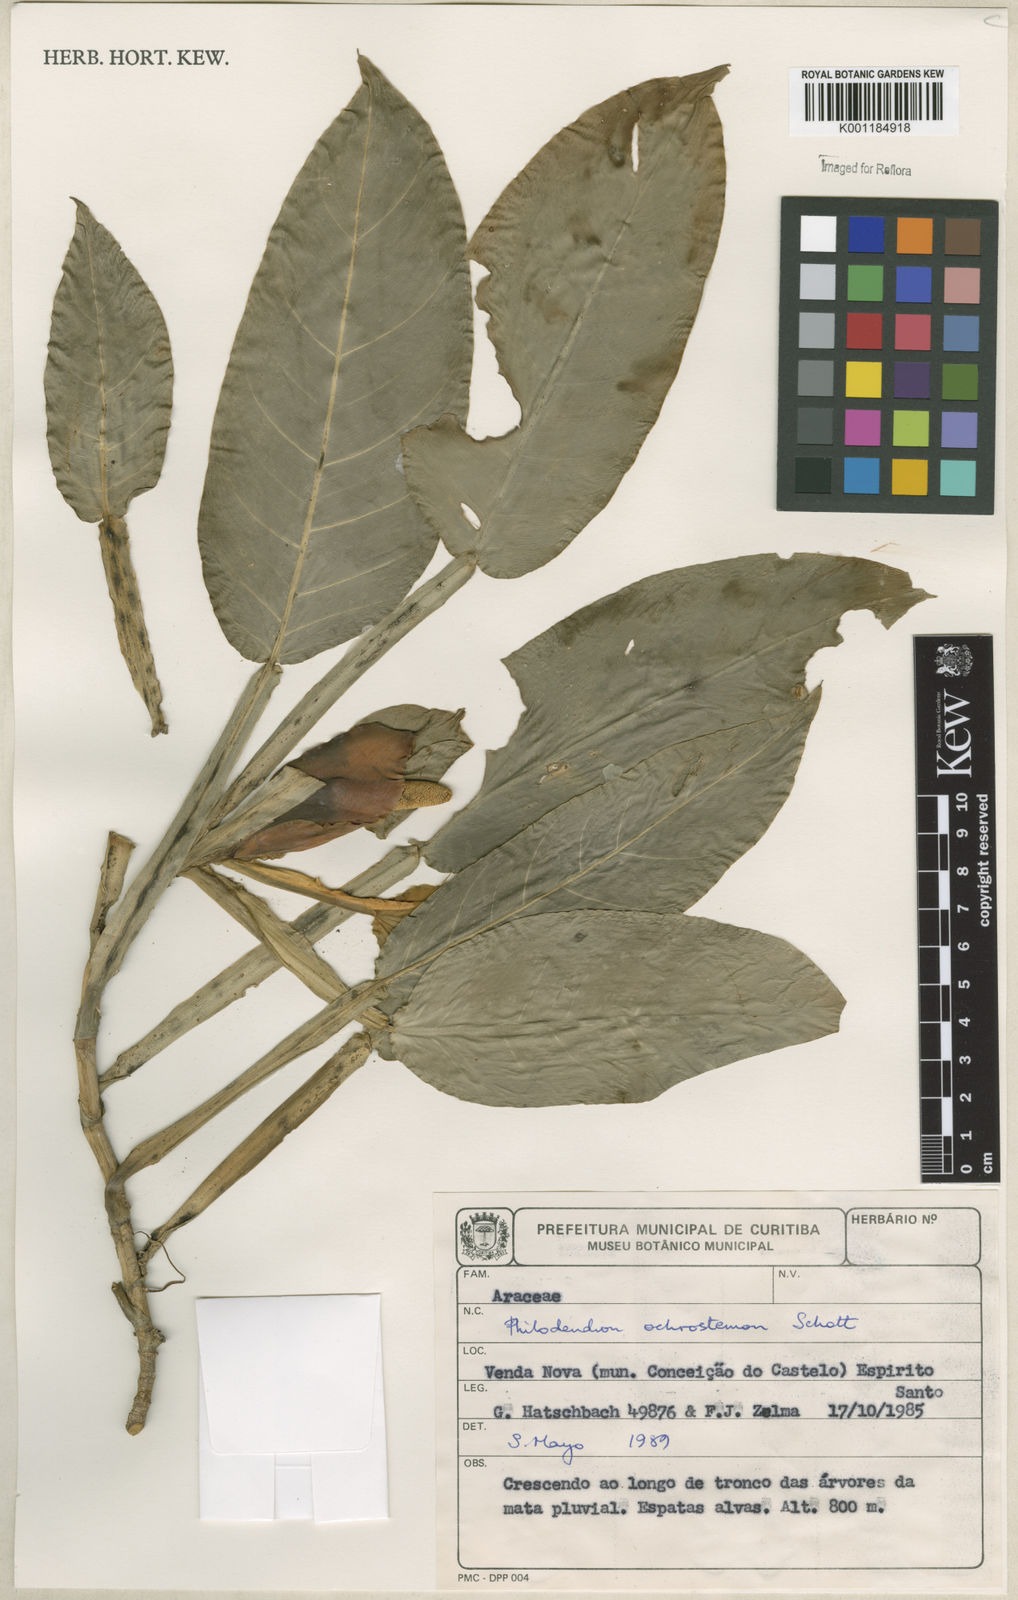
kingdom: Plantae
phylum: Tracheophyta
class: Liliopsida
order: Alismatales
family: Araceae
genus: Philodendron
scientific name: Philodendron ochrostemon
